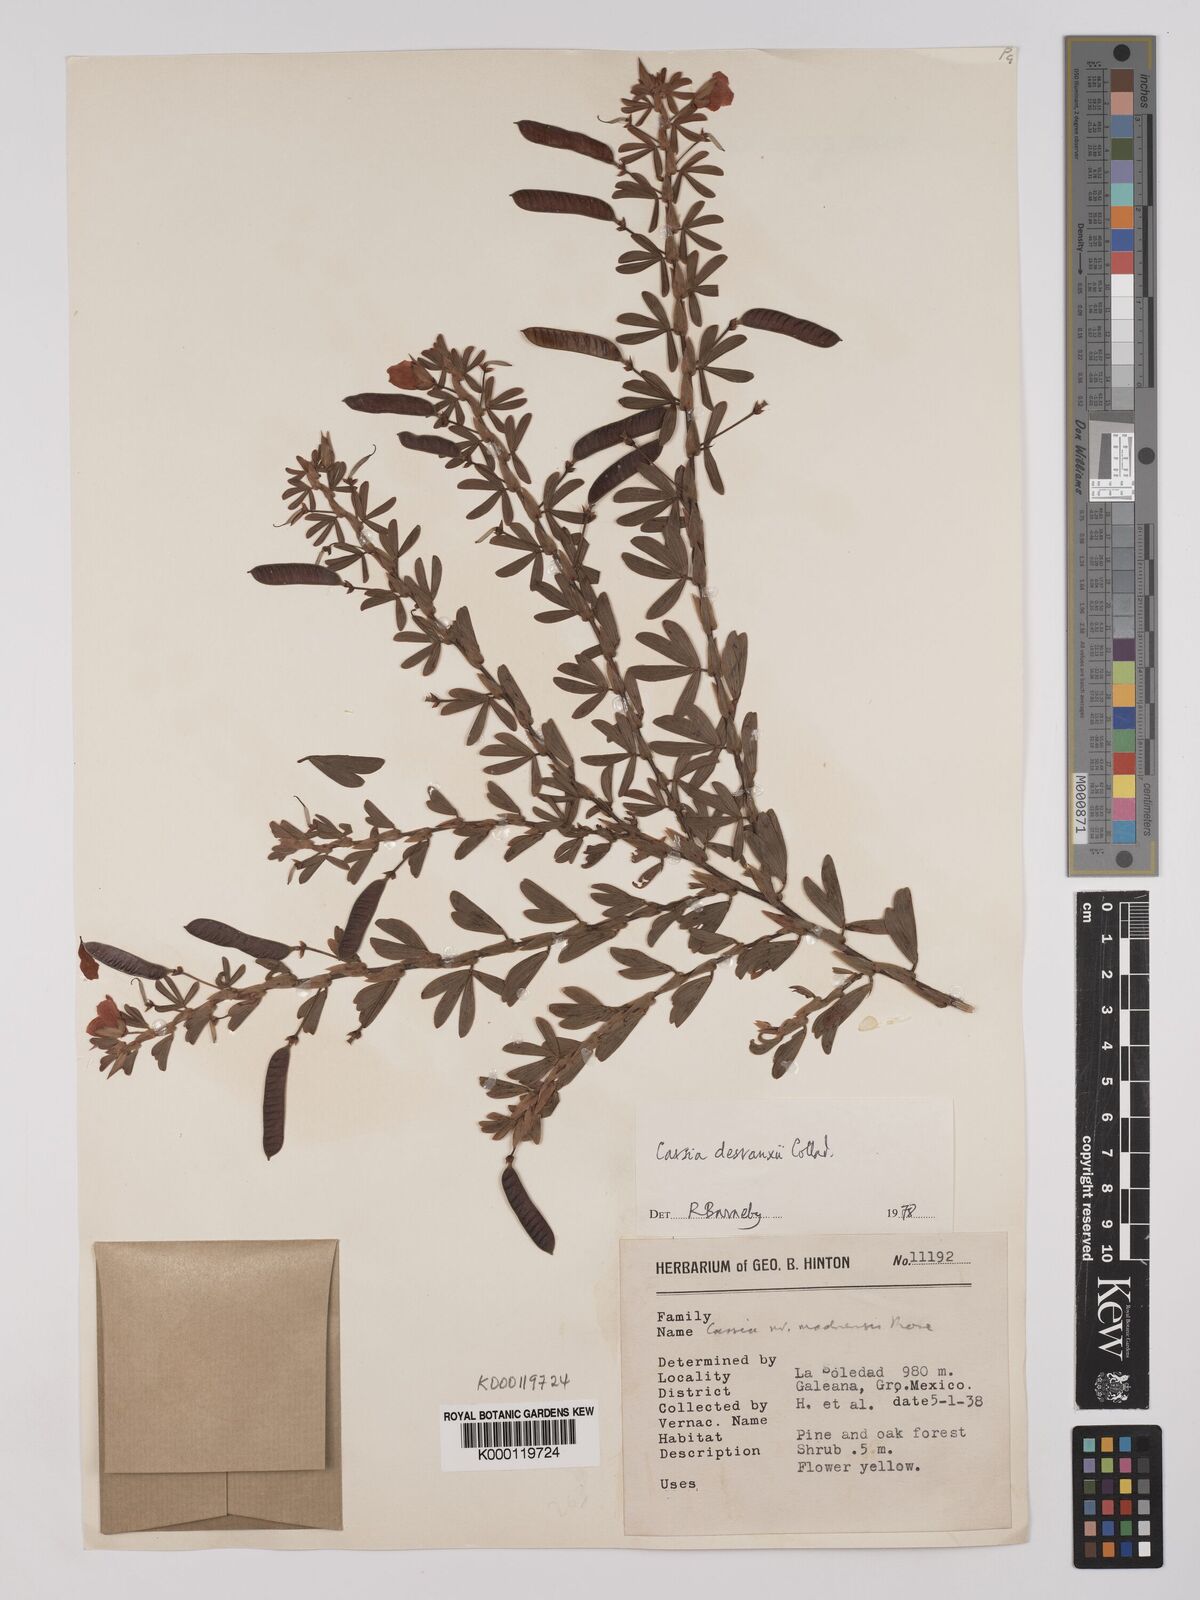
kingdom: Plantae
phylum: Tracheophyta
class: Magnoliopsida
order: Fabales
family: Fabaceae
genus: Chamaecrista
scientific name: Chamaecrista desvauxii
